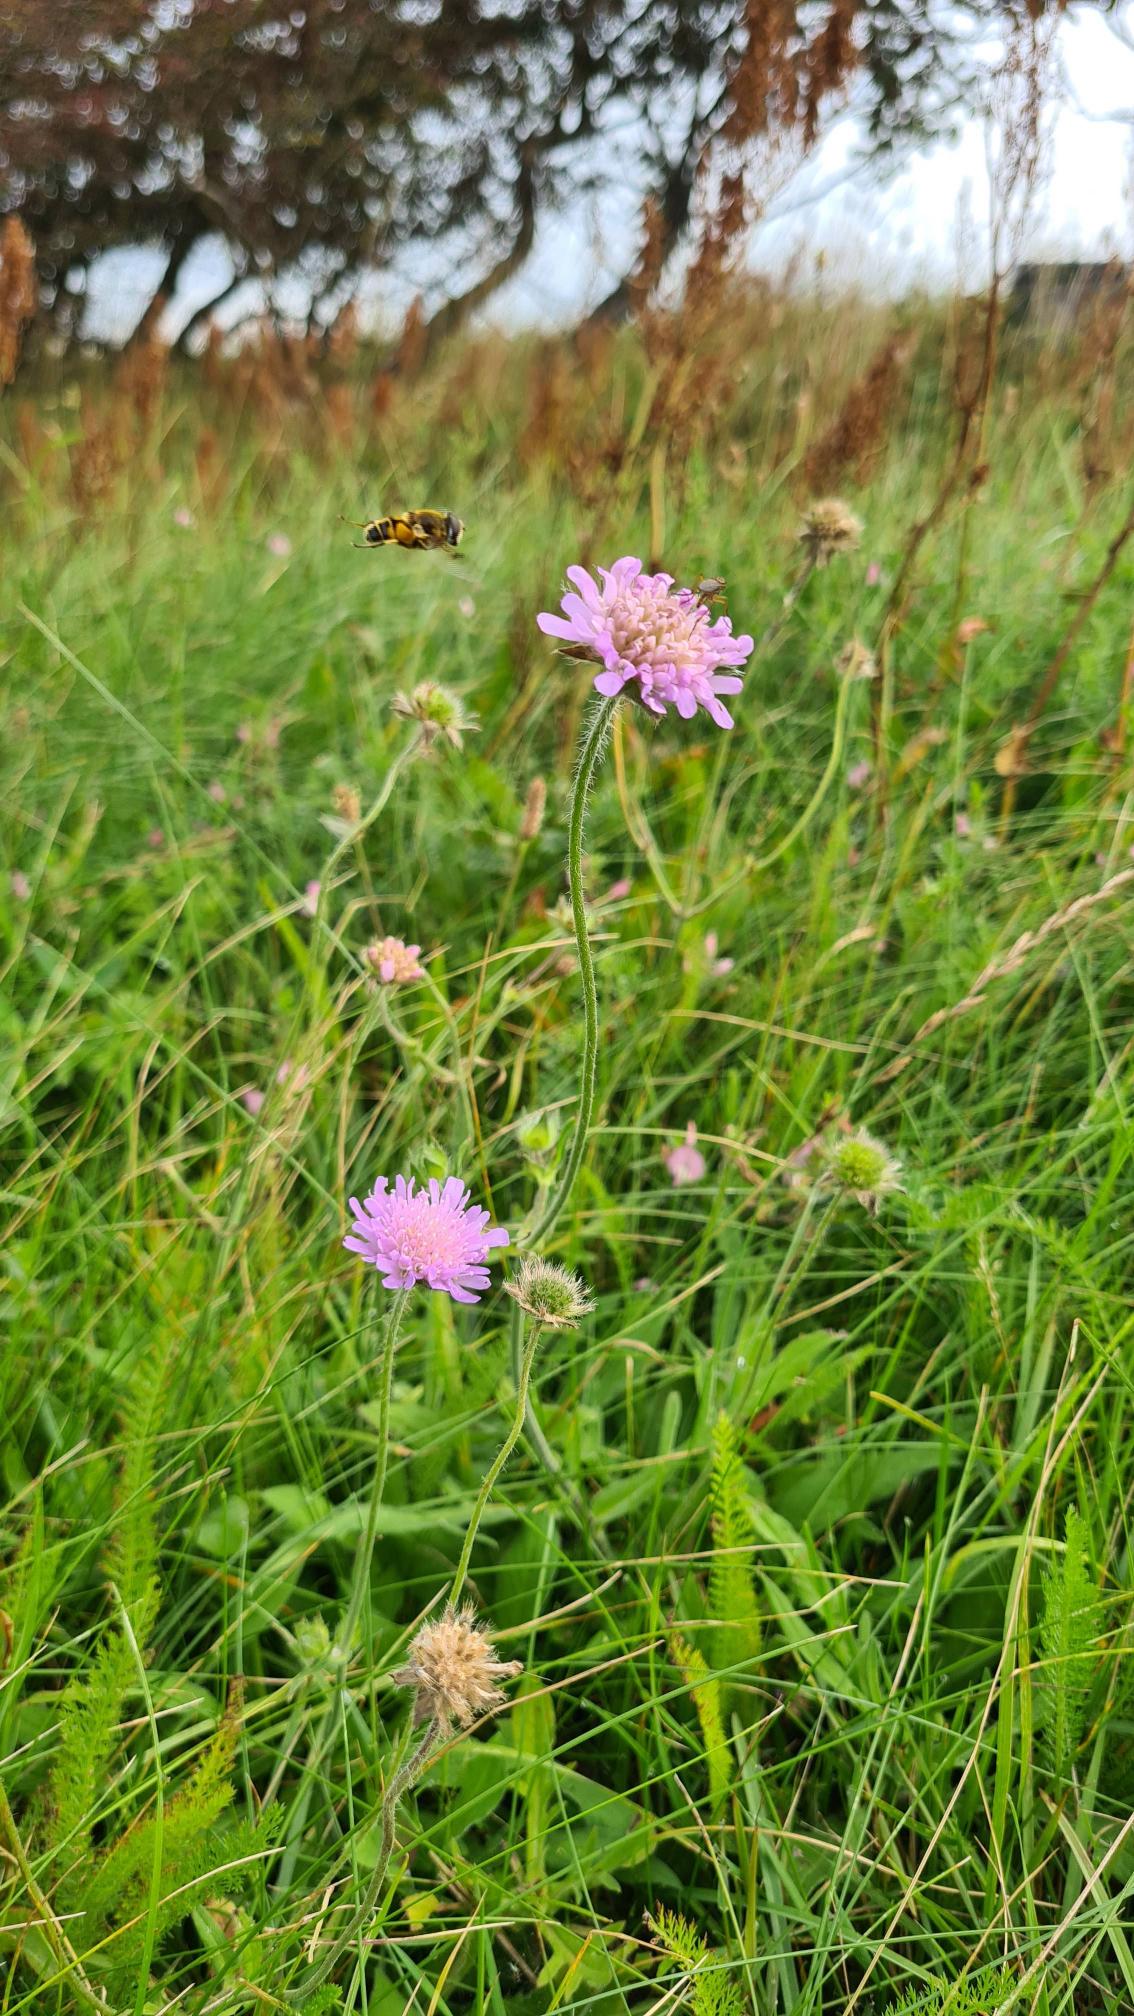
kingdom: Plantae
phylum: Tracheophyta
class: Magnoliopsida
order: Dipsacales
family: Caprifoliaceae
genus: Knautia
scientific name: Knautia arvensis
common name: Blåhat
